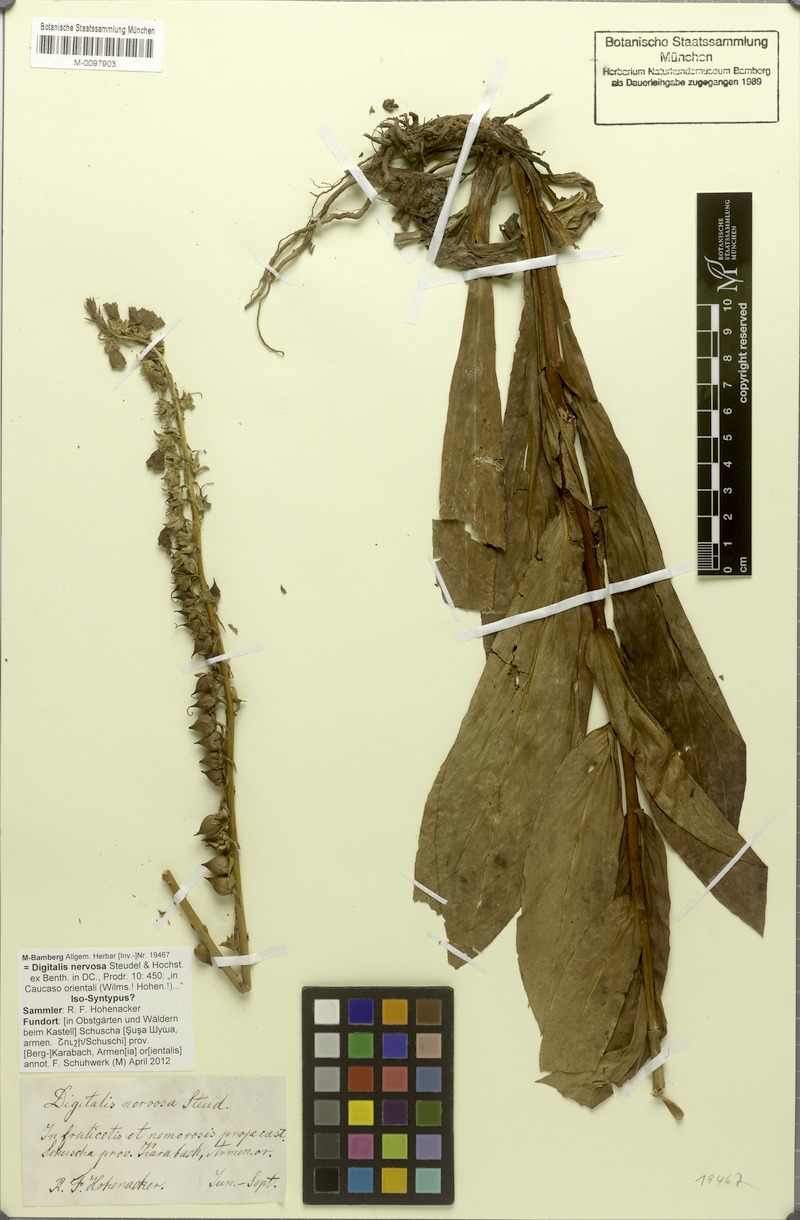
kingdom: Plantae
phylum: Tracheophyta
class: Magnoliopsida
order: Lamiales
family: Plantaginaceae
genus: Digitalis
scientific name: Digitalis nervosa
